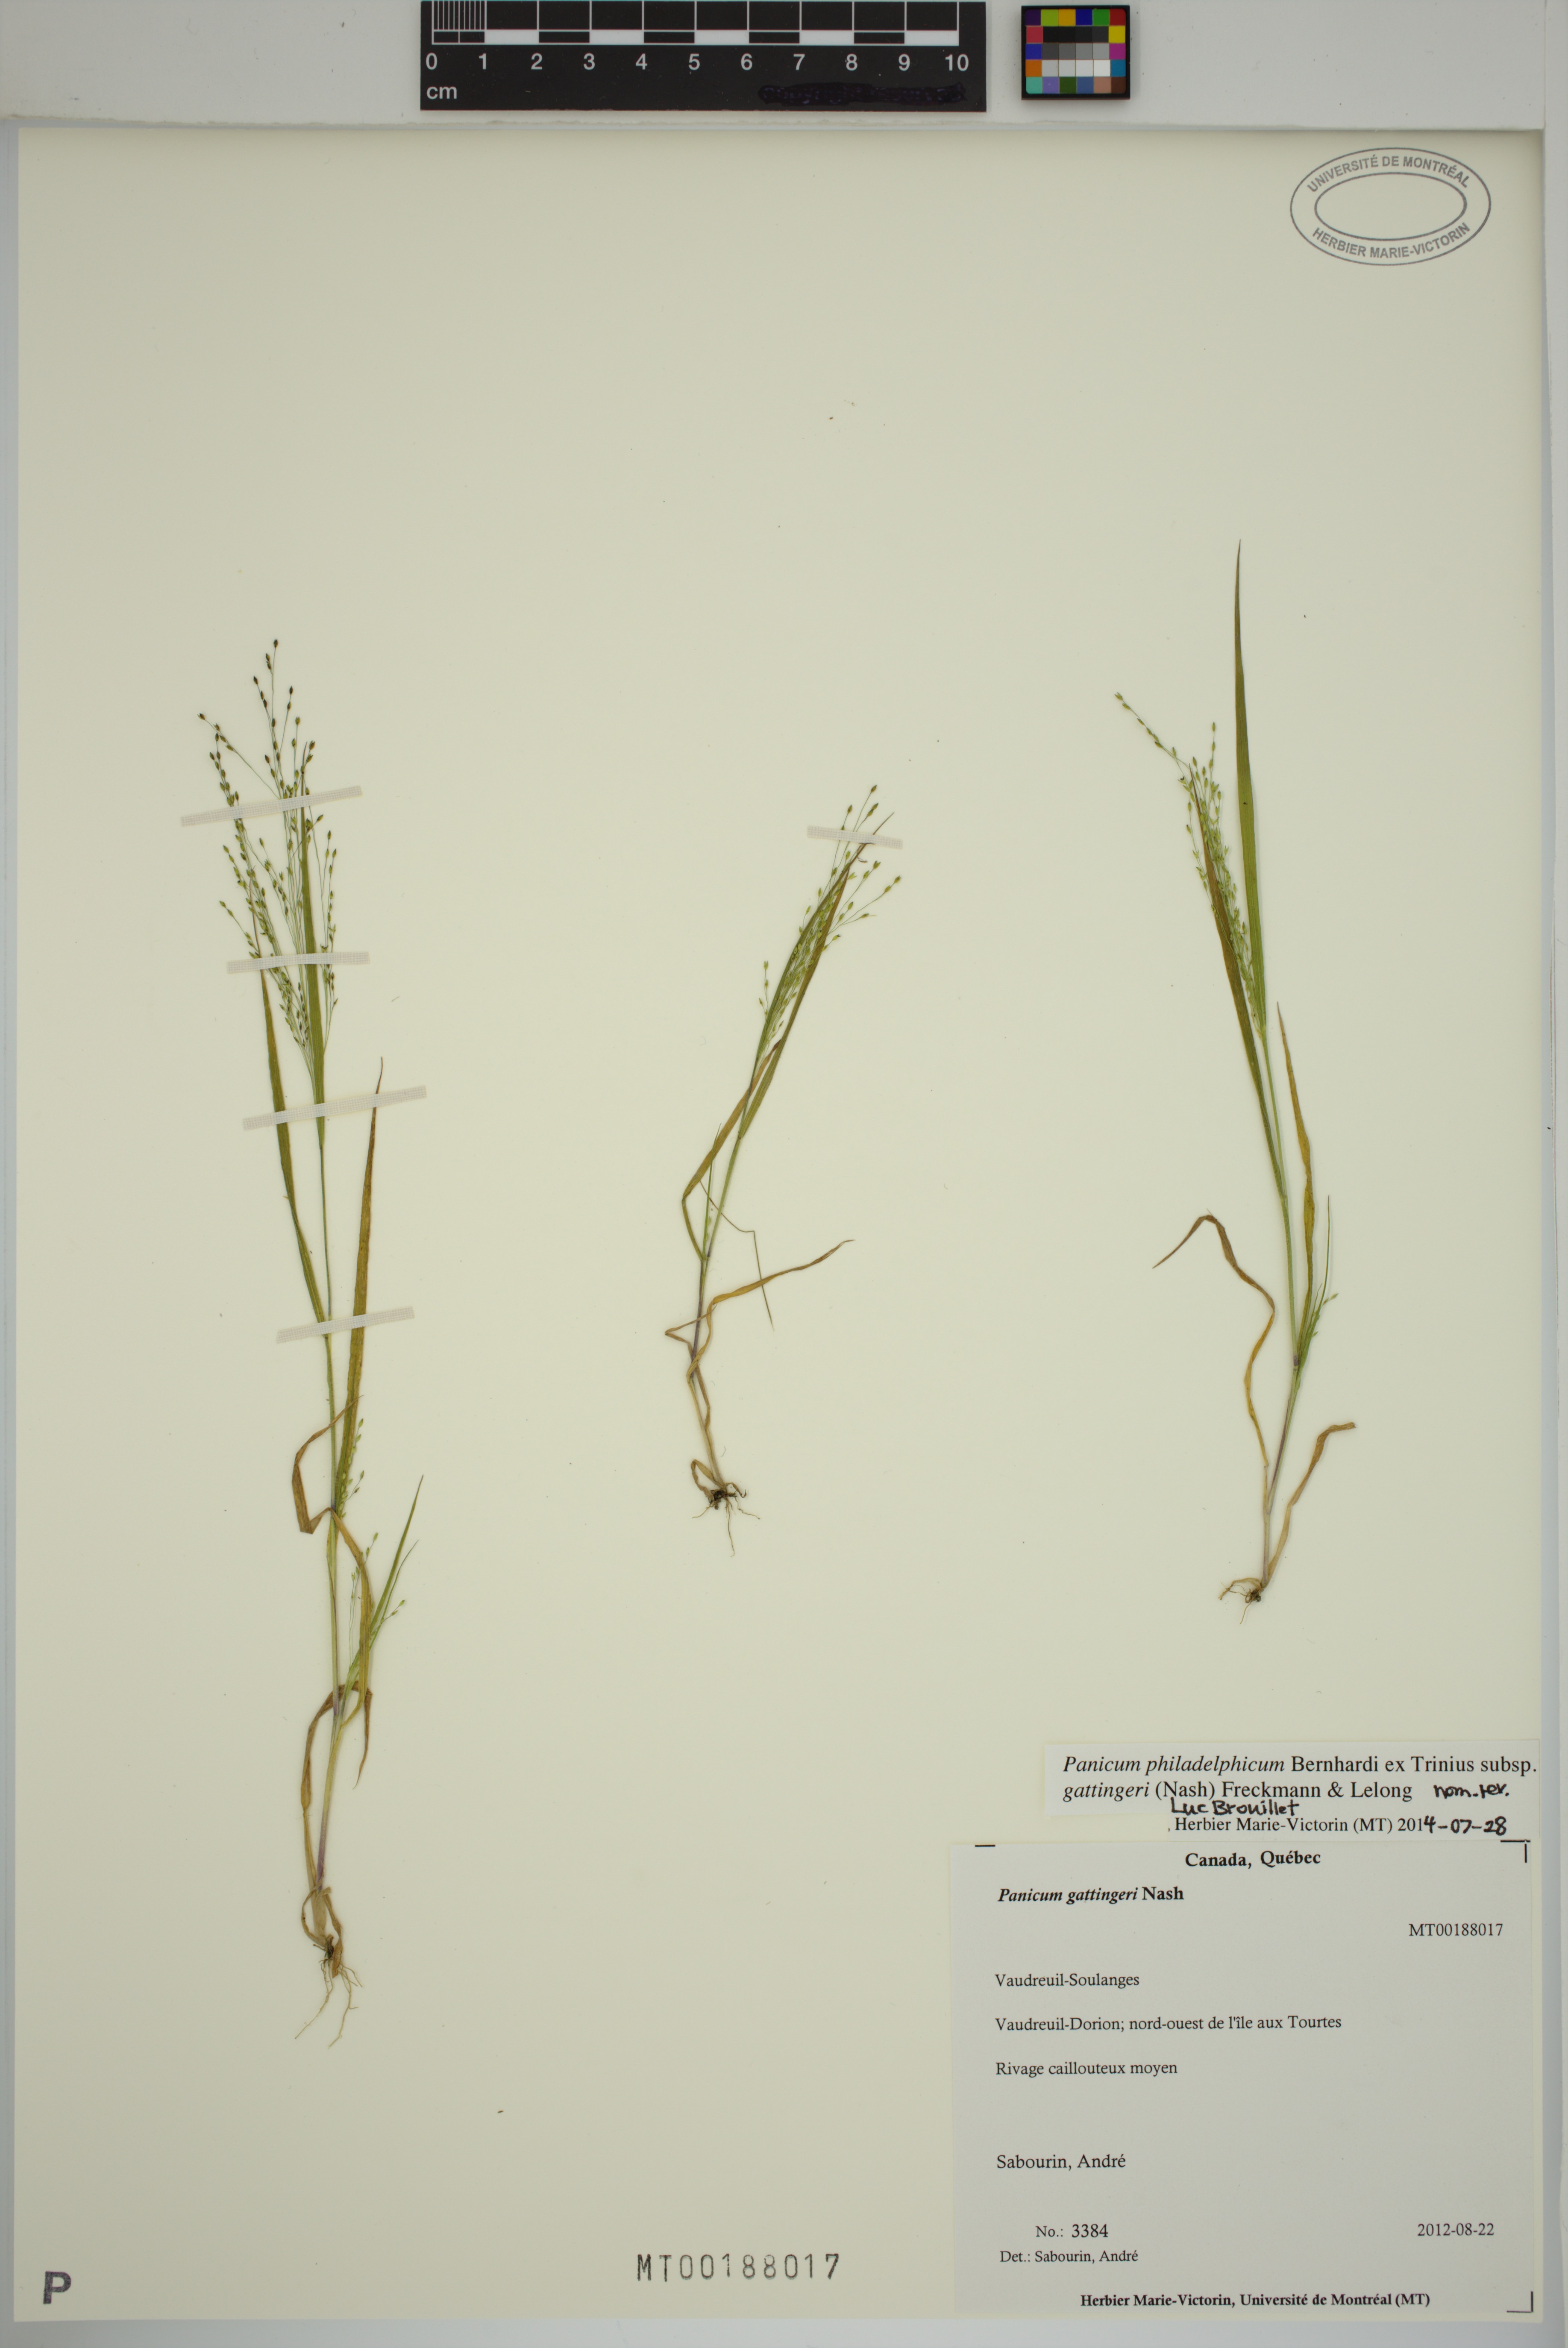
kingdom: Plantae
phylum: Tracheophyta
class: Liliopsida
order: Poales
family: Poaceae
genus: Panicum
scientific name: Panicum philadelphicum
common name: Philadelphia witchgrass
